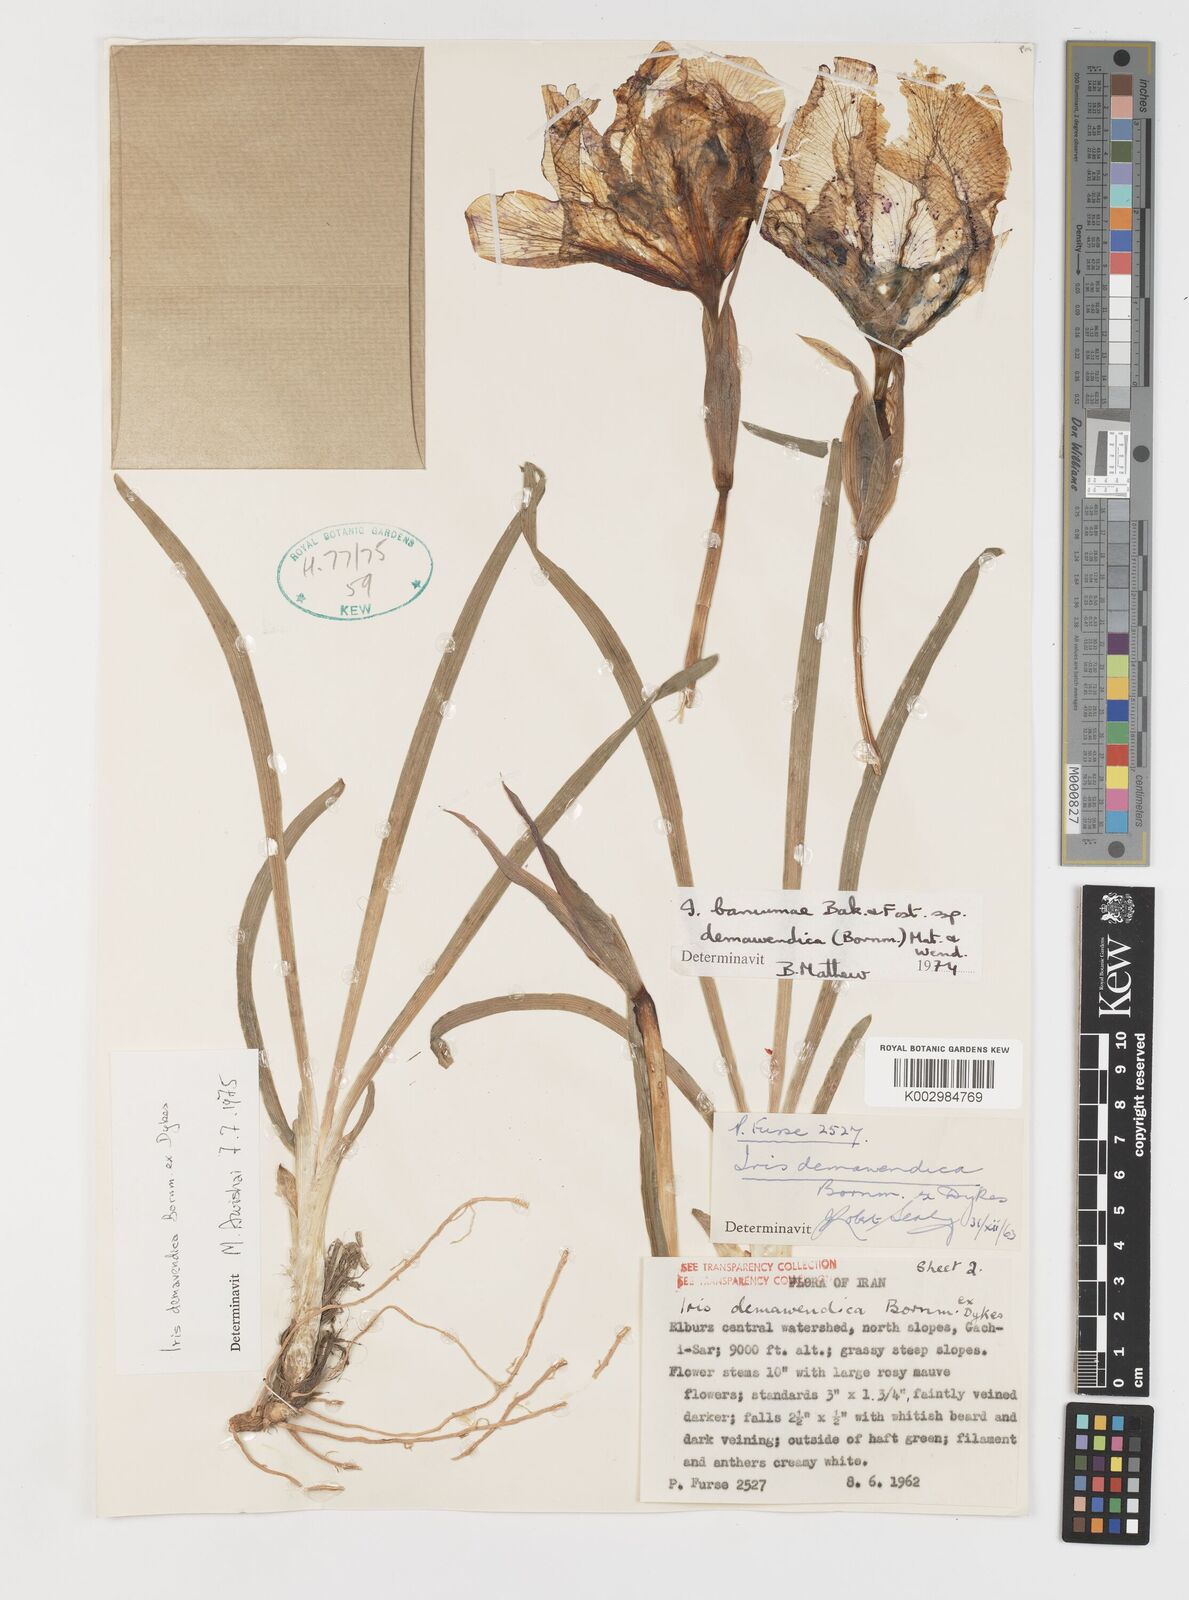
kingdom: Plantae
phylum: Tracheophyta
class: Liliopsida
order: Asparagales
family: Iridaceae
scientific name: Iridaceae
